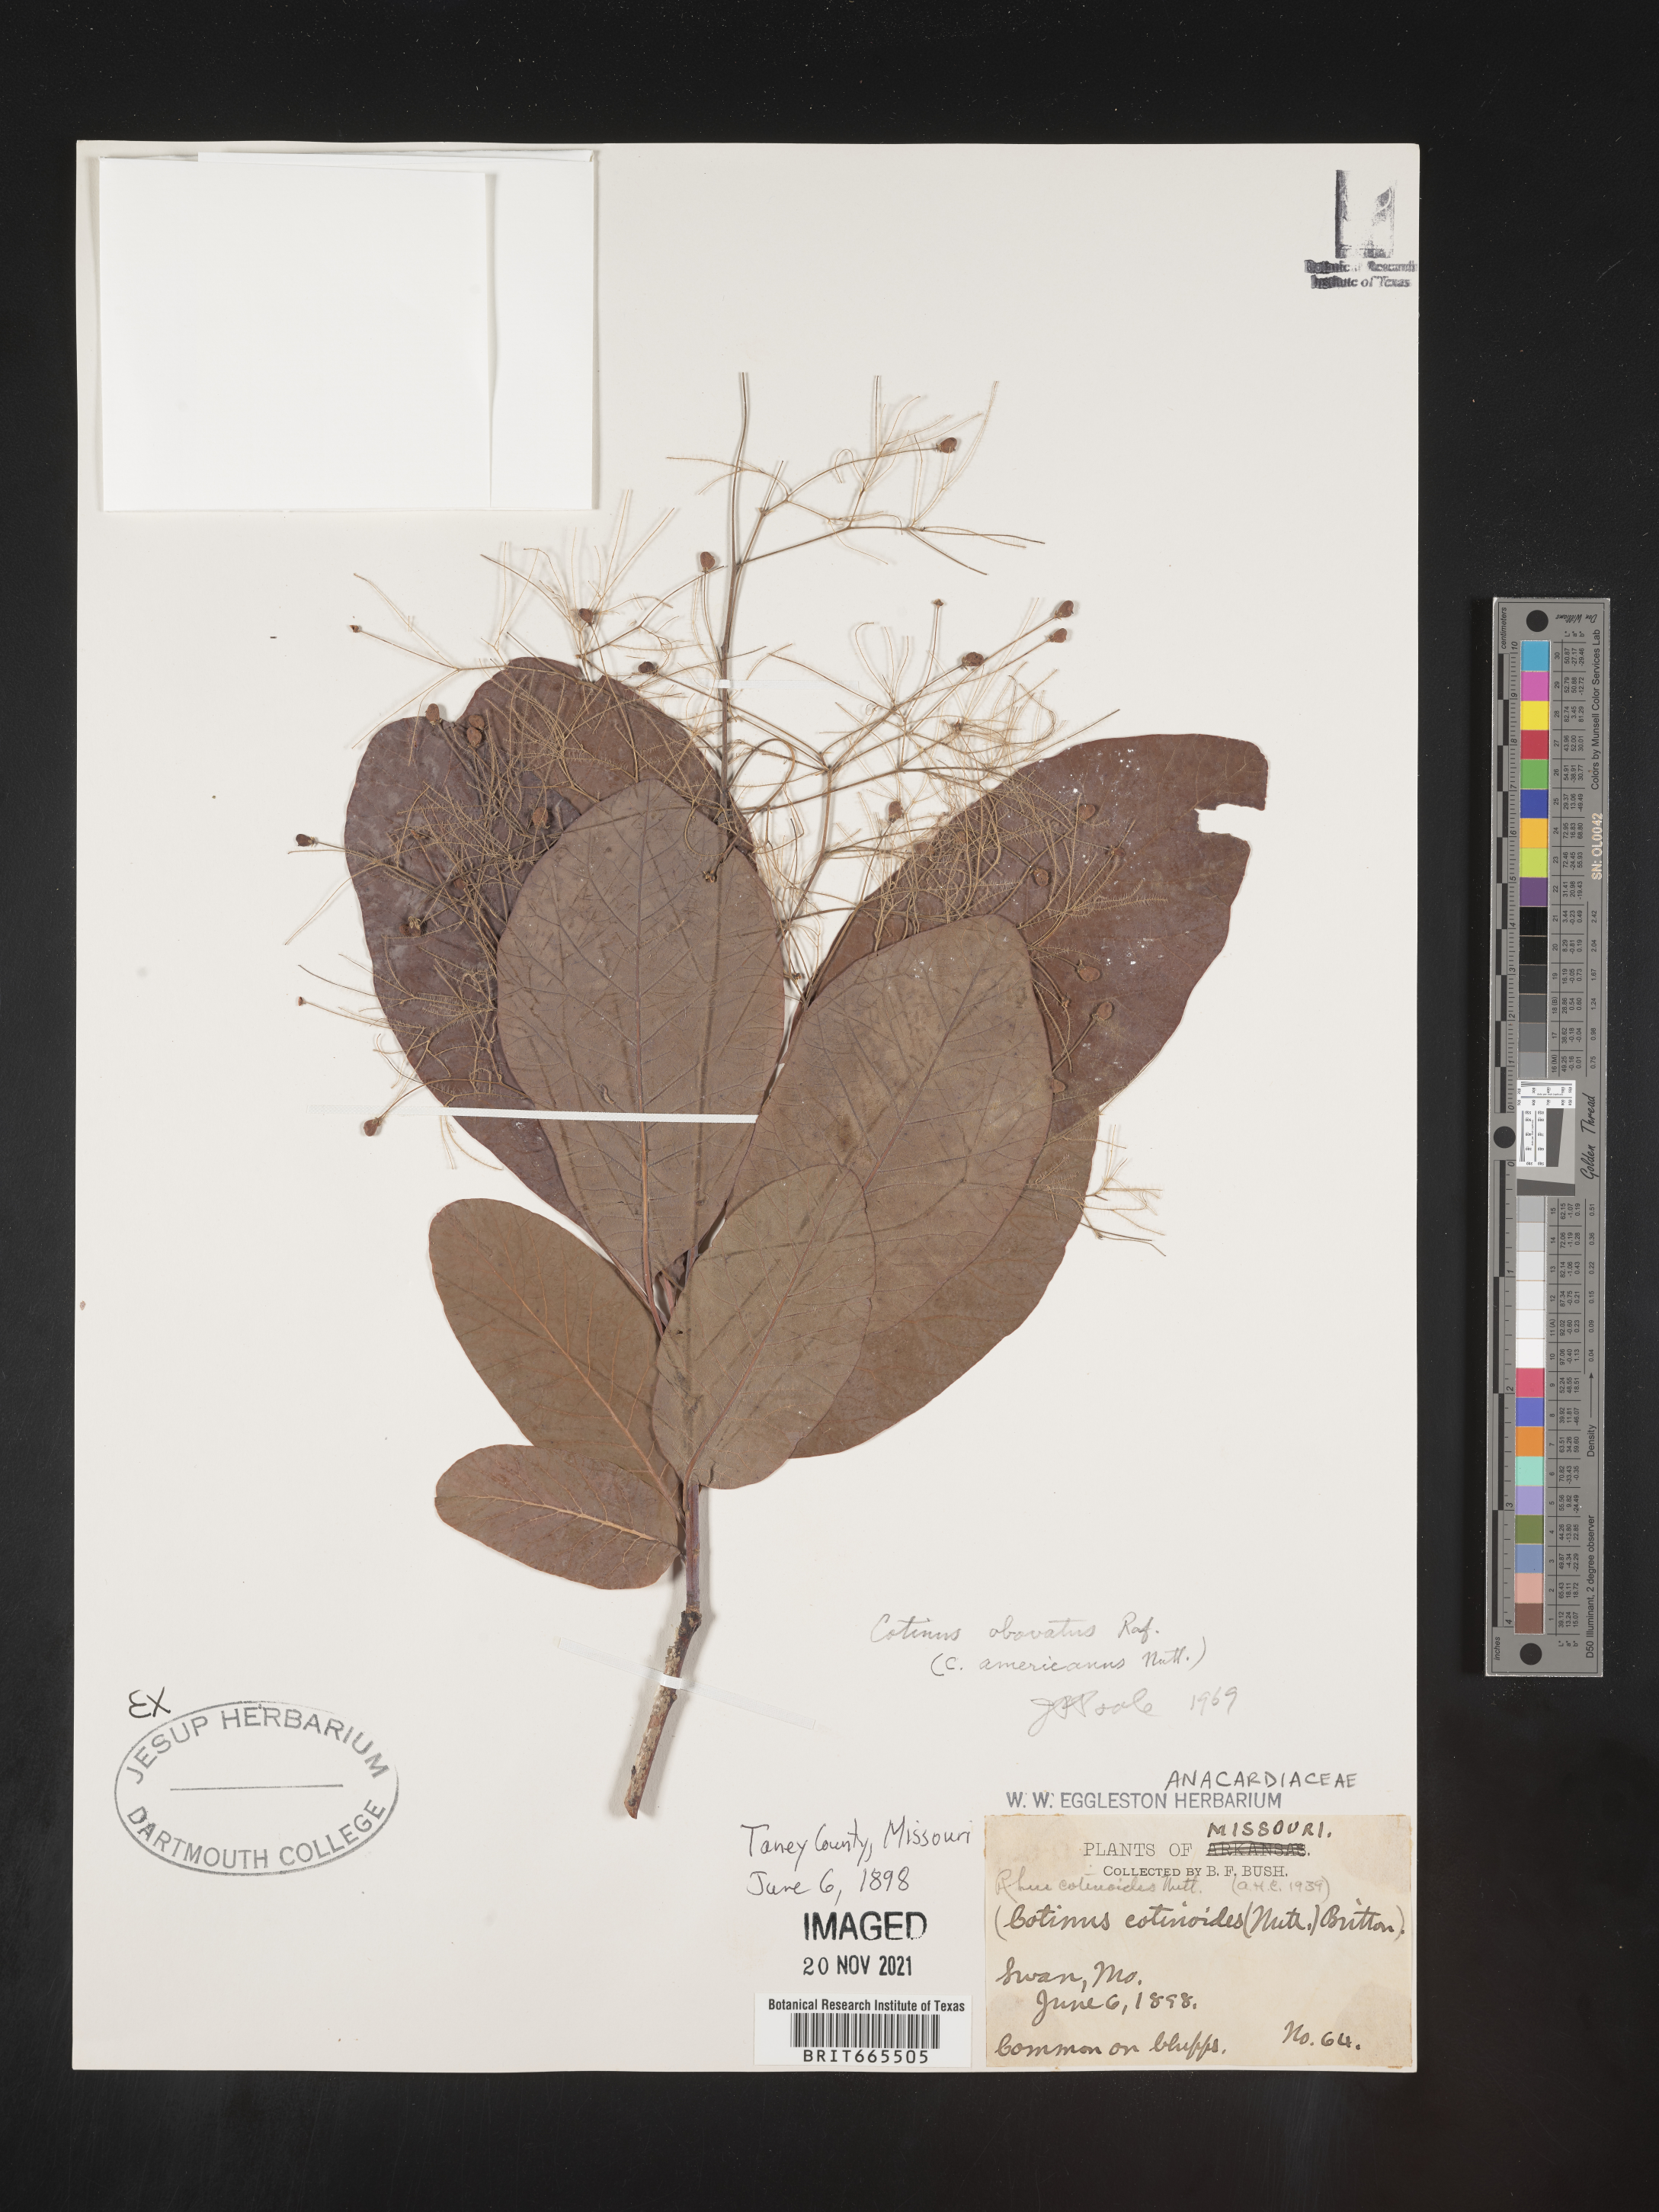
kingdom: Plantae
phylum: Tracheophyta
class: Magnoliopsida
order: Sapindales
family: Anacardiaceae
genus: Cotinus
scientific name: Cotinus obovatus
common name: Chittamwood
